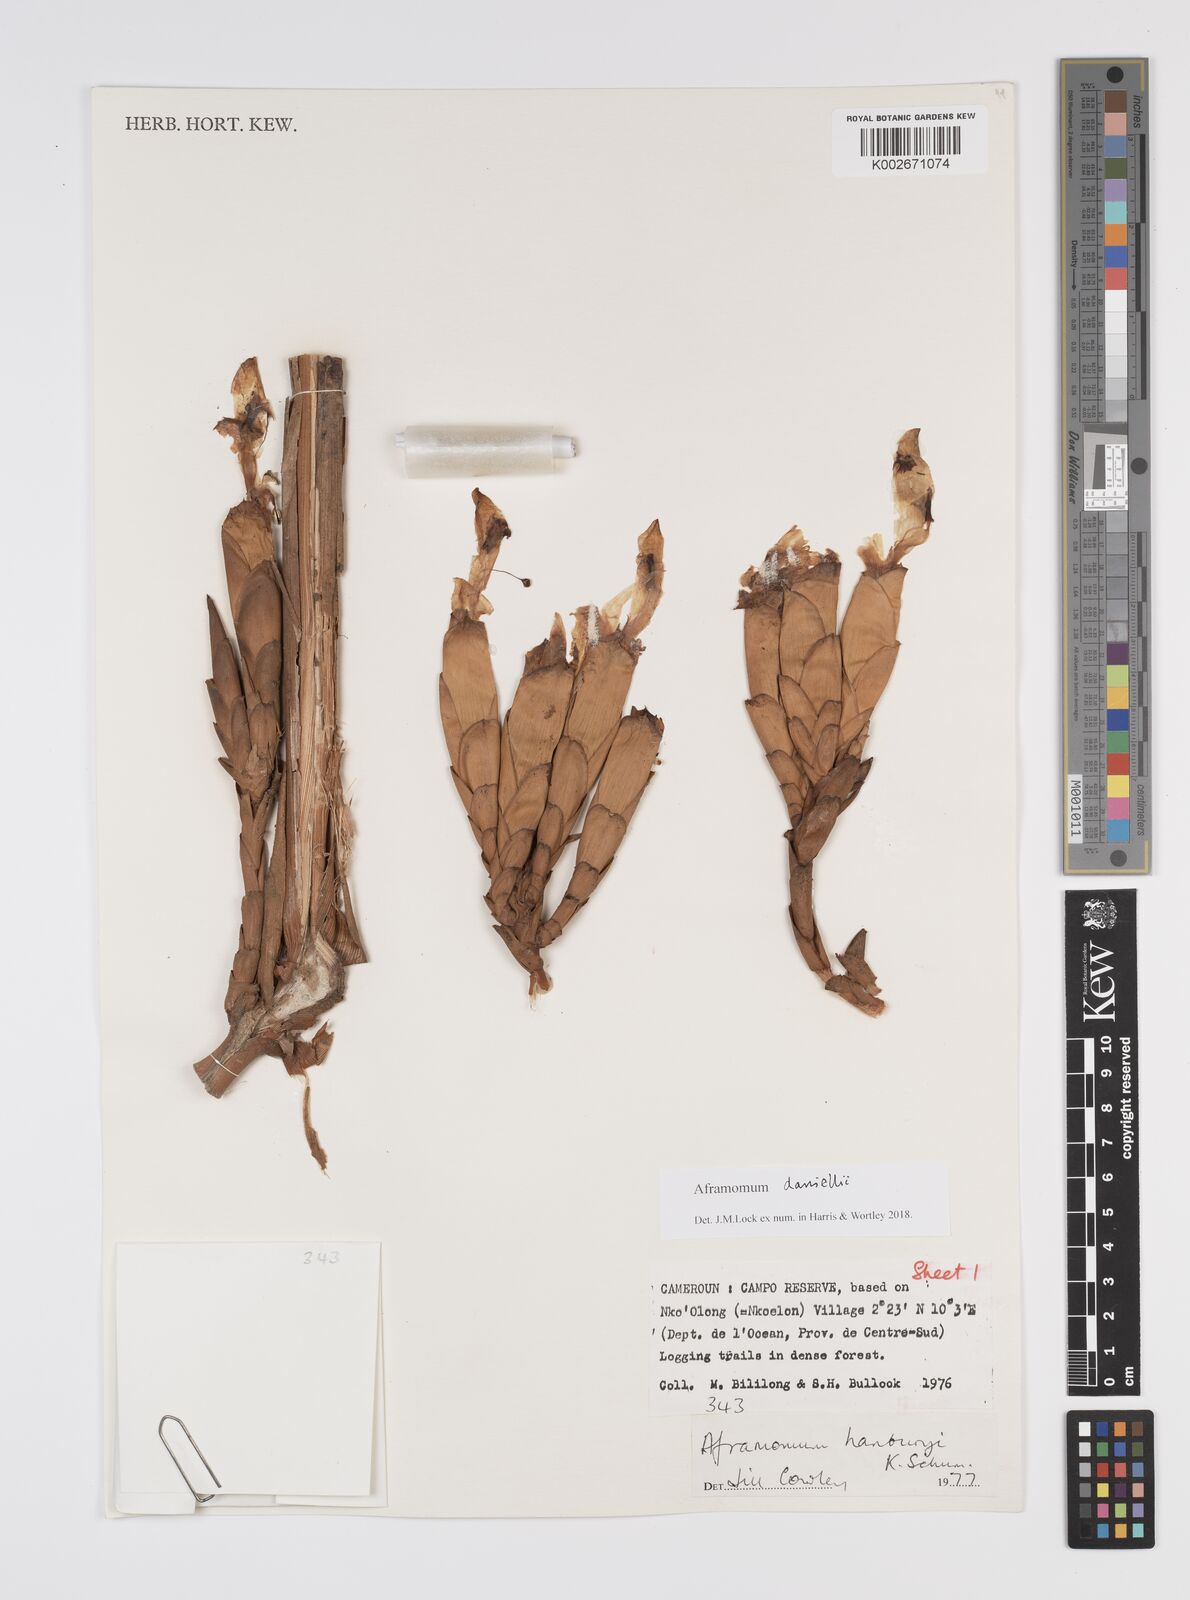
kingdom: Plantae
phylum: Tracheophyta
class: Liliopsida
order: Zingiberales
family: Zingiberaceae
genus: Aframomum
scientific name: Aframomum daniellii
